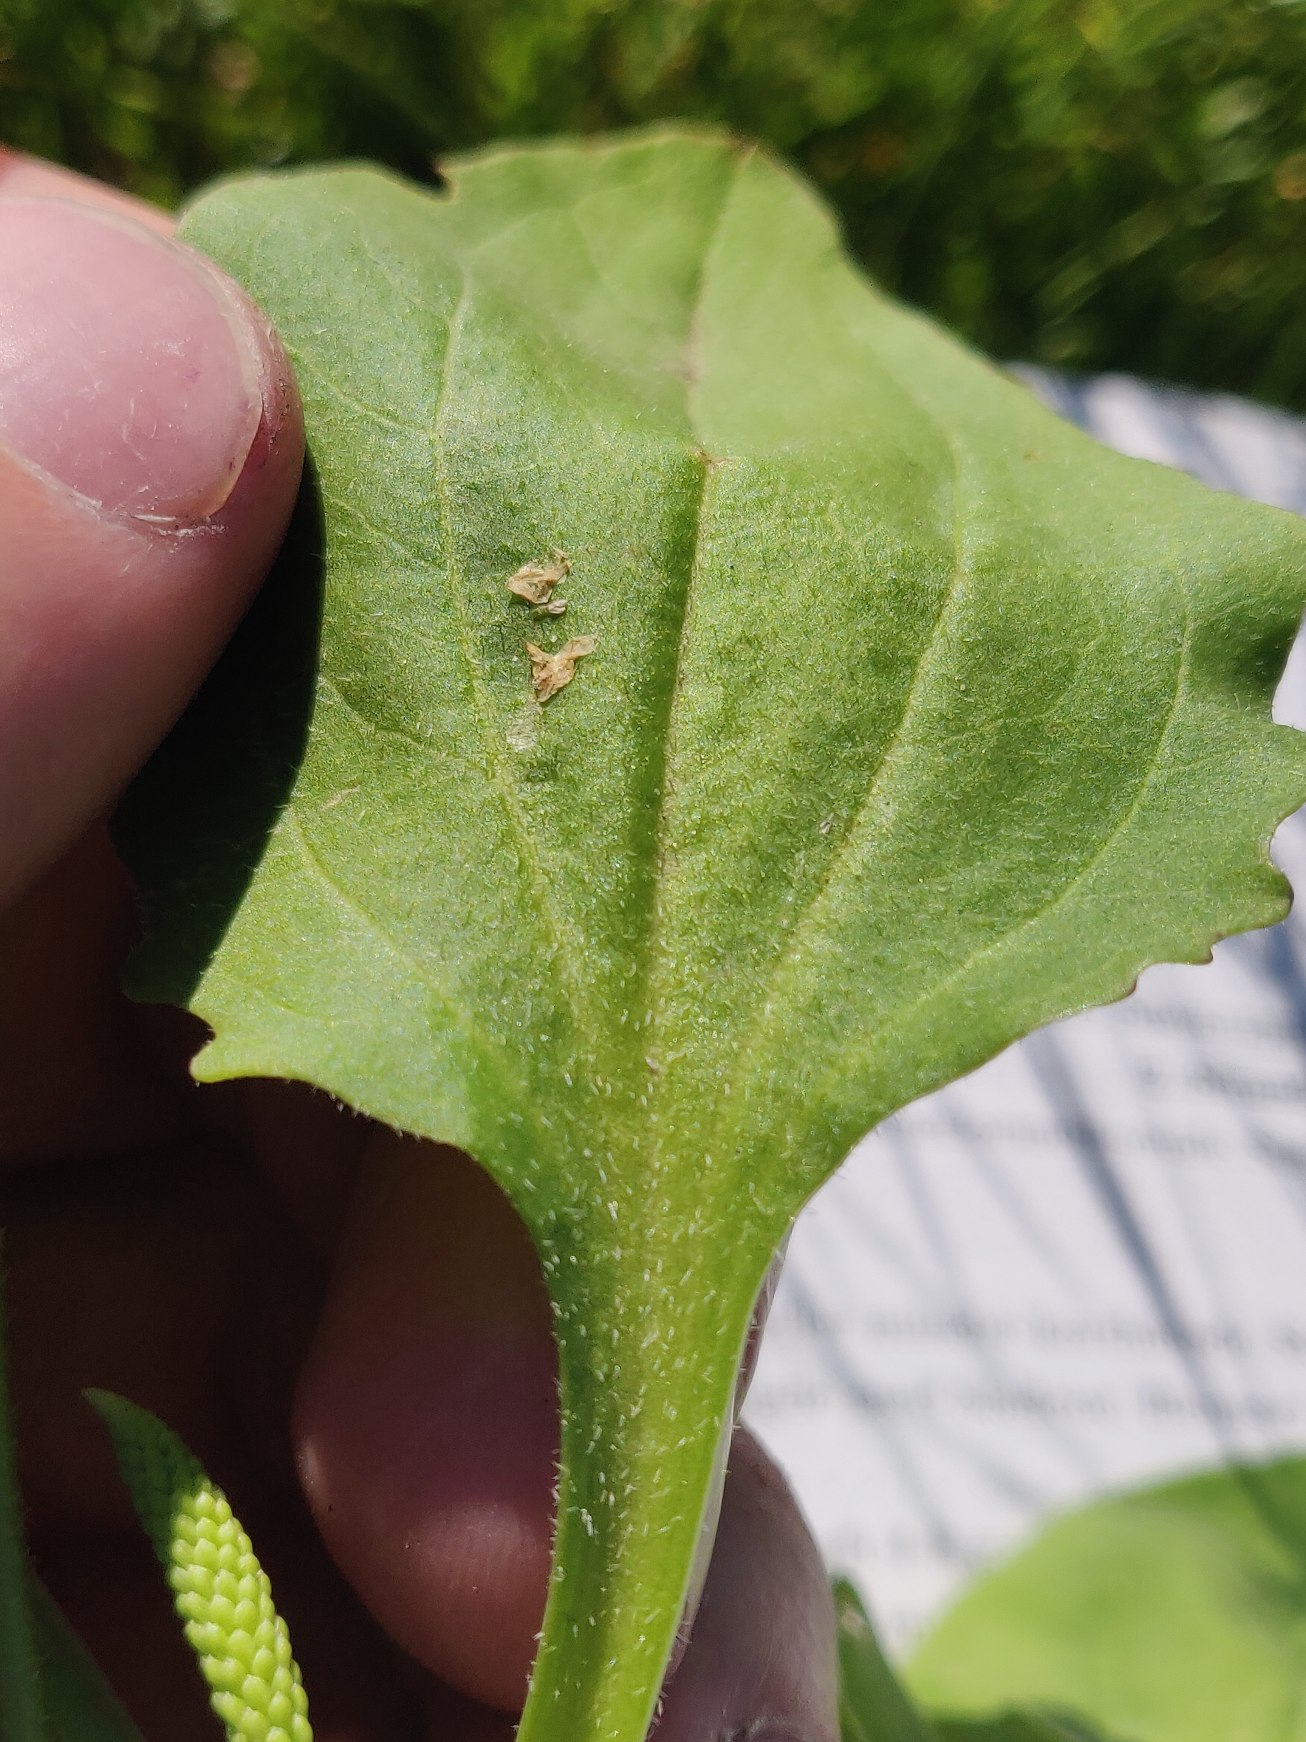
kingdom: Plantae
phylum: Tracheophyta
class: Magnoliopsida
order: Lamiales
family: Plantaginaceae
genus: Plantago
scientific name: Plantago major
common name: Glat vejbred
